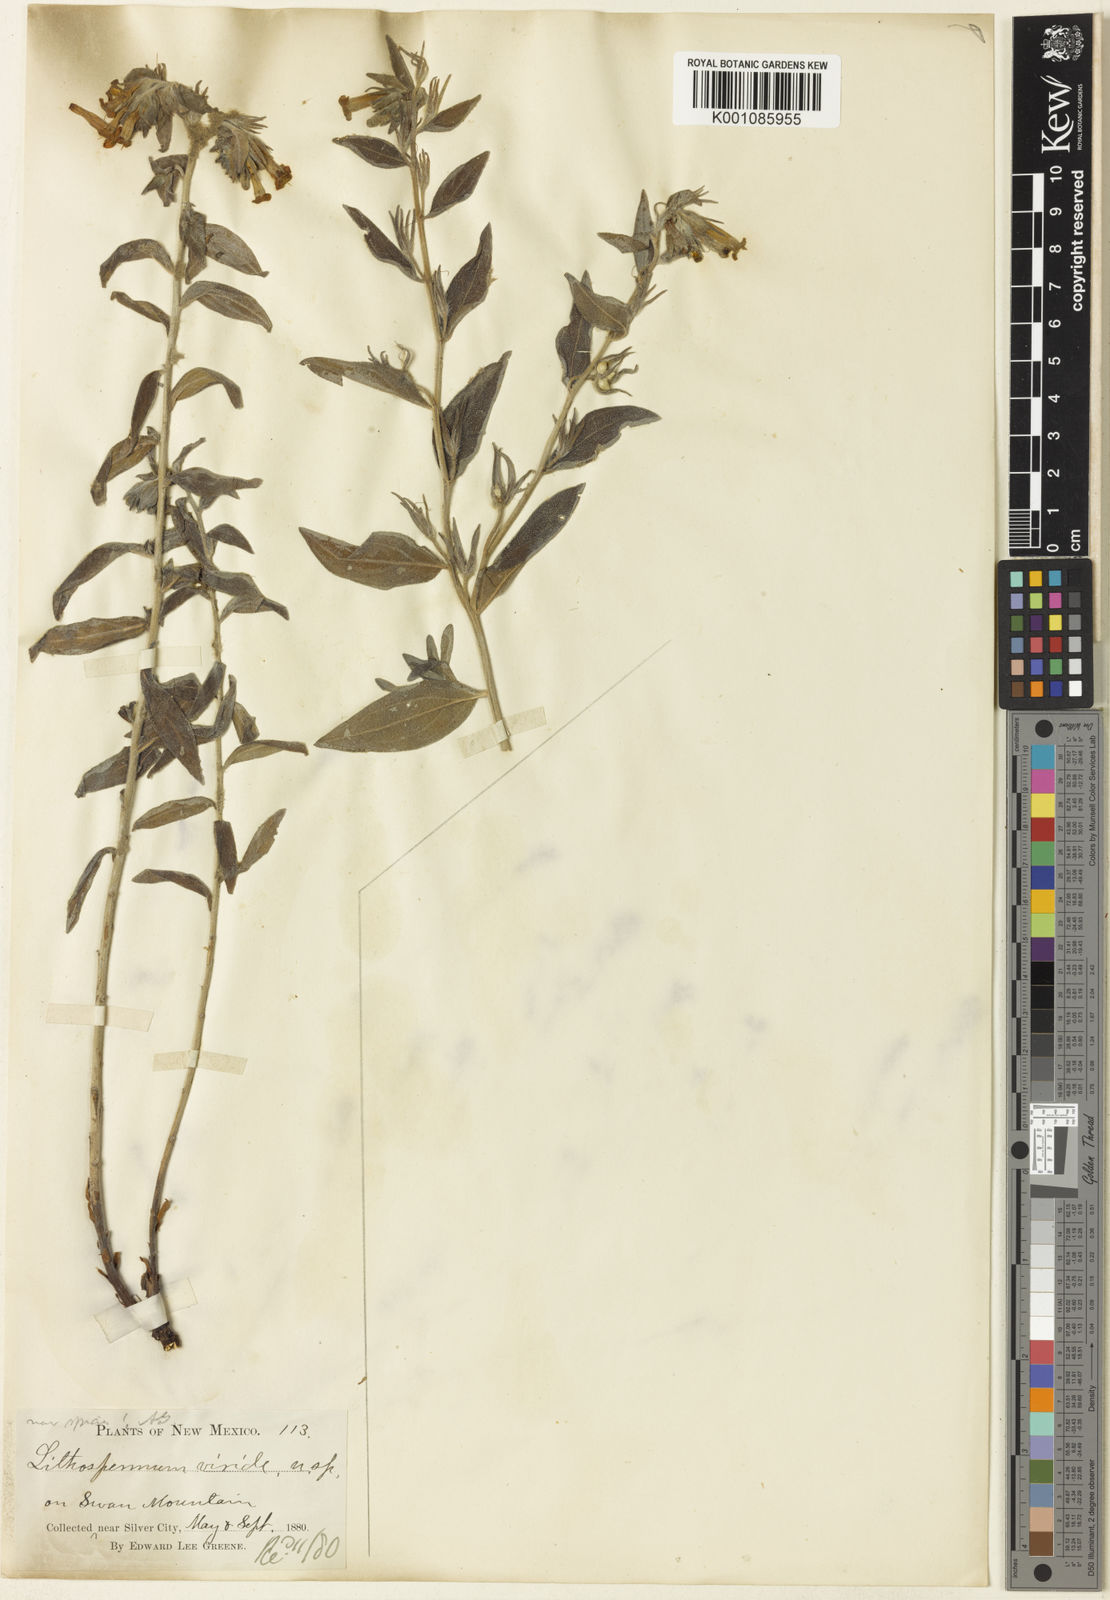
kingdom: Plantae
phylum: Tracheophyta
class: Magnoliopsida
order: Boraginales
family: Boraginaceae
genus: Lithospermum
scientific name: Lithospermum viride
